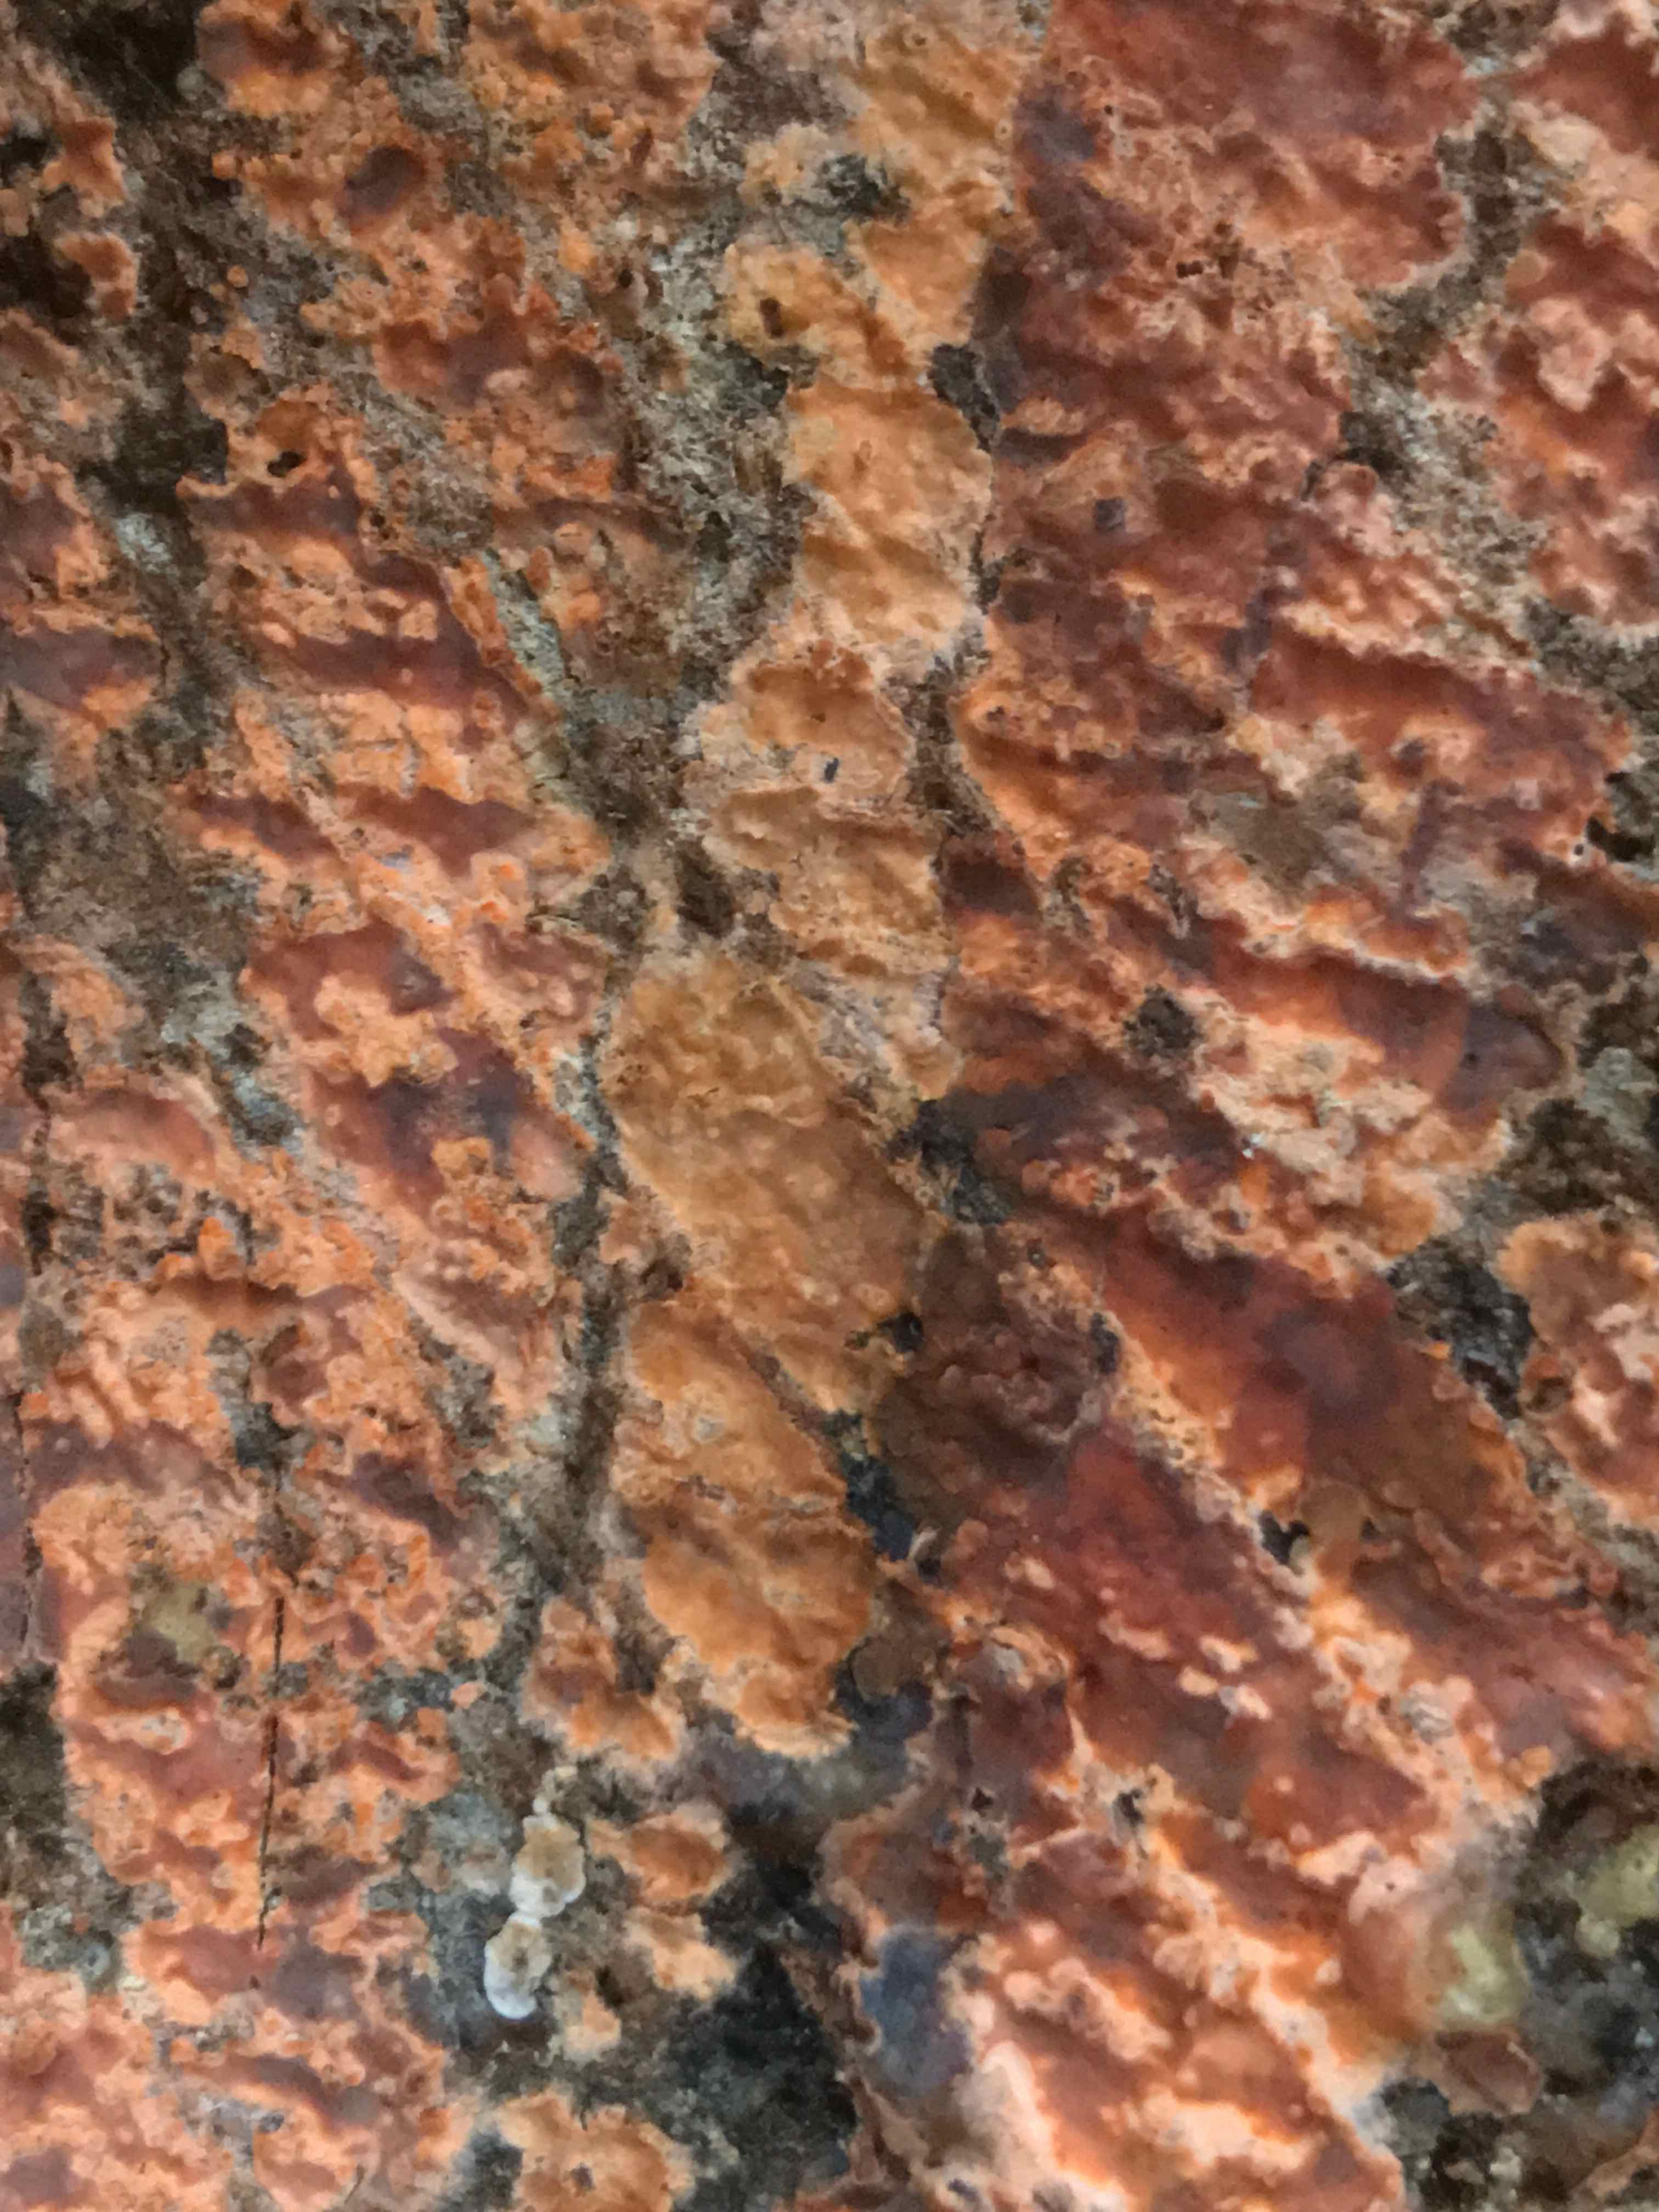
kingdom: Fungi
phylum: Basidiomycota
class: Agaricomycetes
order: Russulales
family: Peniophoraceae
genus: Peniophora
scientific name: Peniophora incarnata
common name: laksefarvet voksskind
